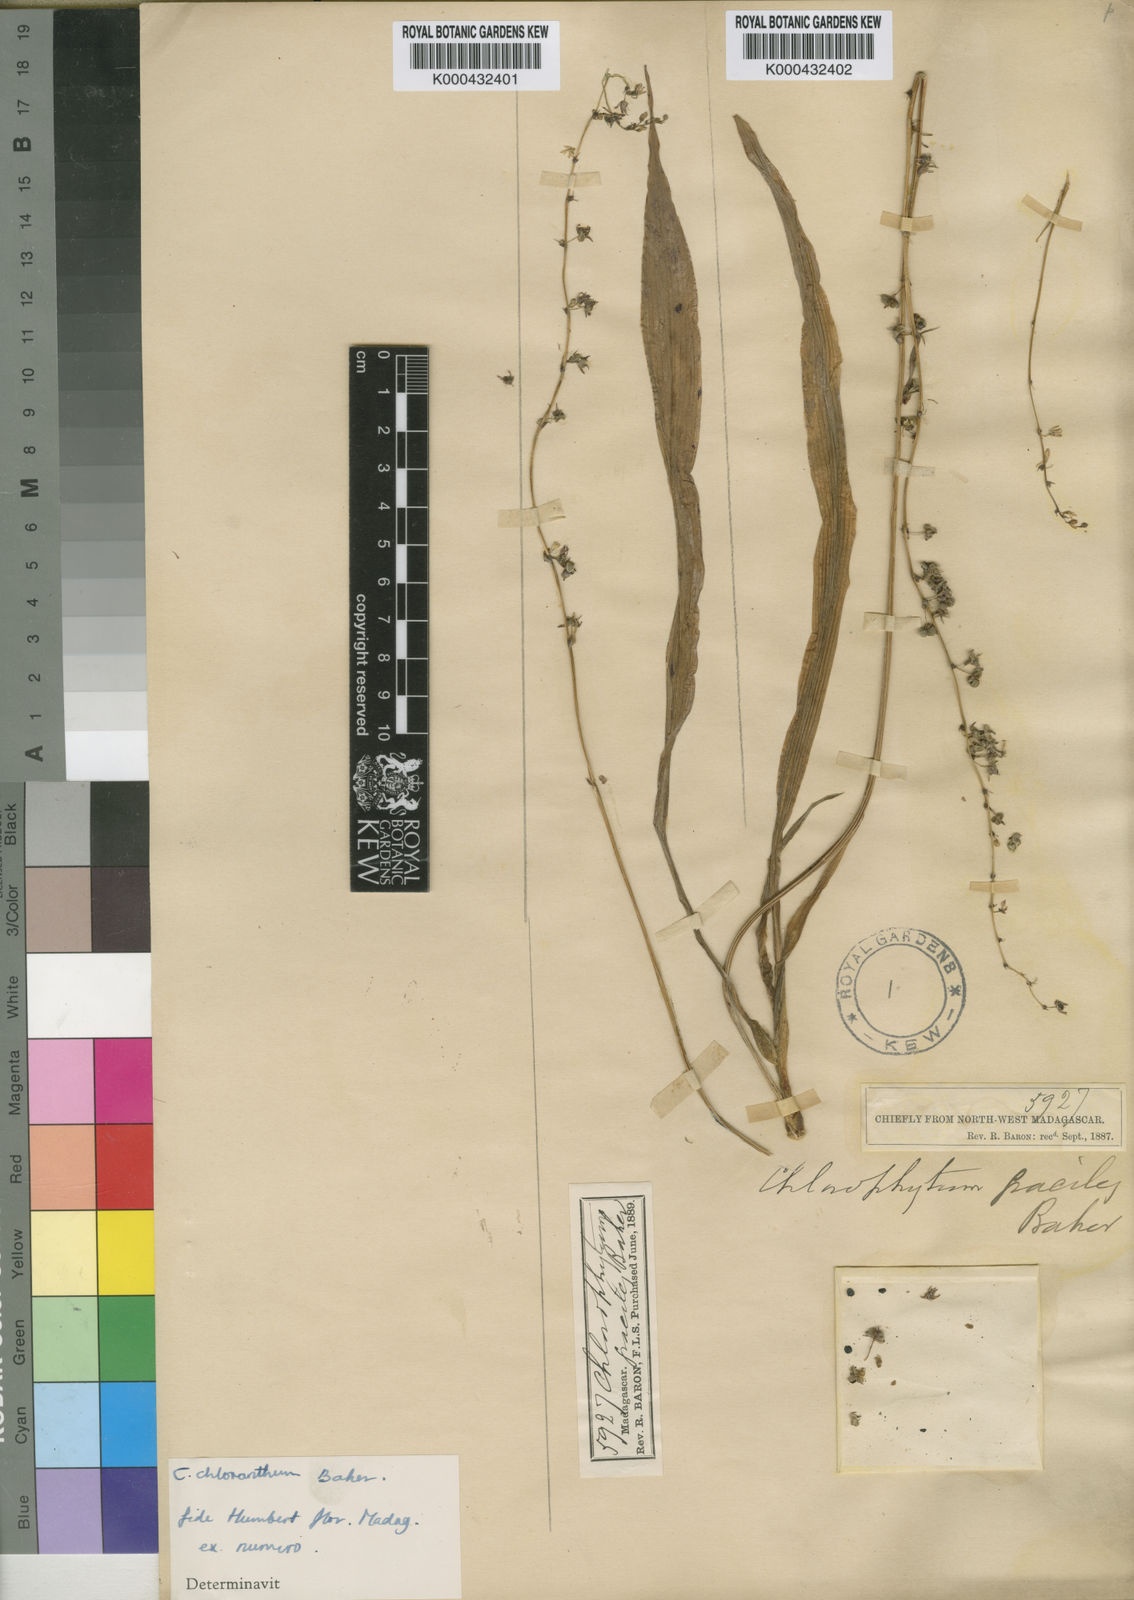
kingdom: Plantae
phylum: Tracheophyta
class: Liliopsida
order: Asparagales
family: Asparagaceae
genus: Chlorophytum
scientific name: Chlorophytum chloranthum
